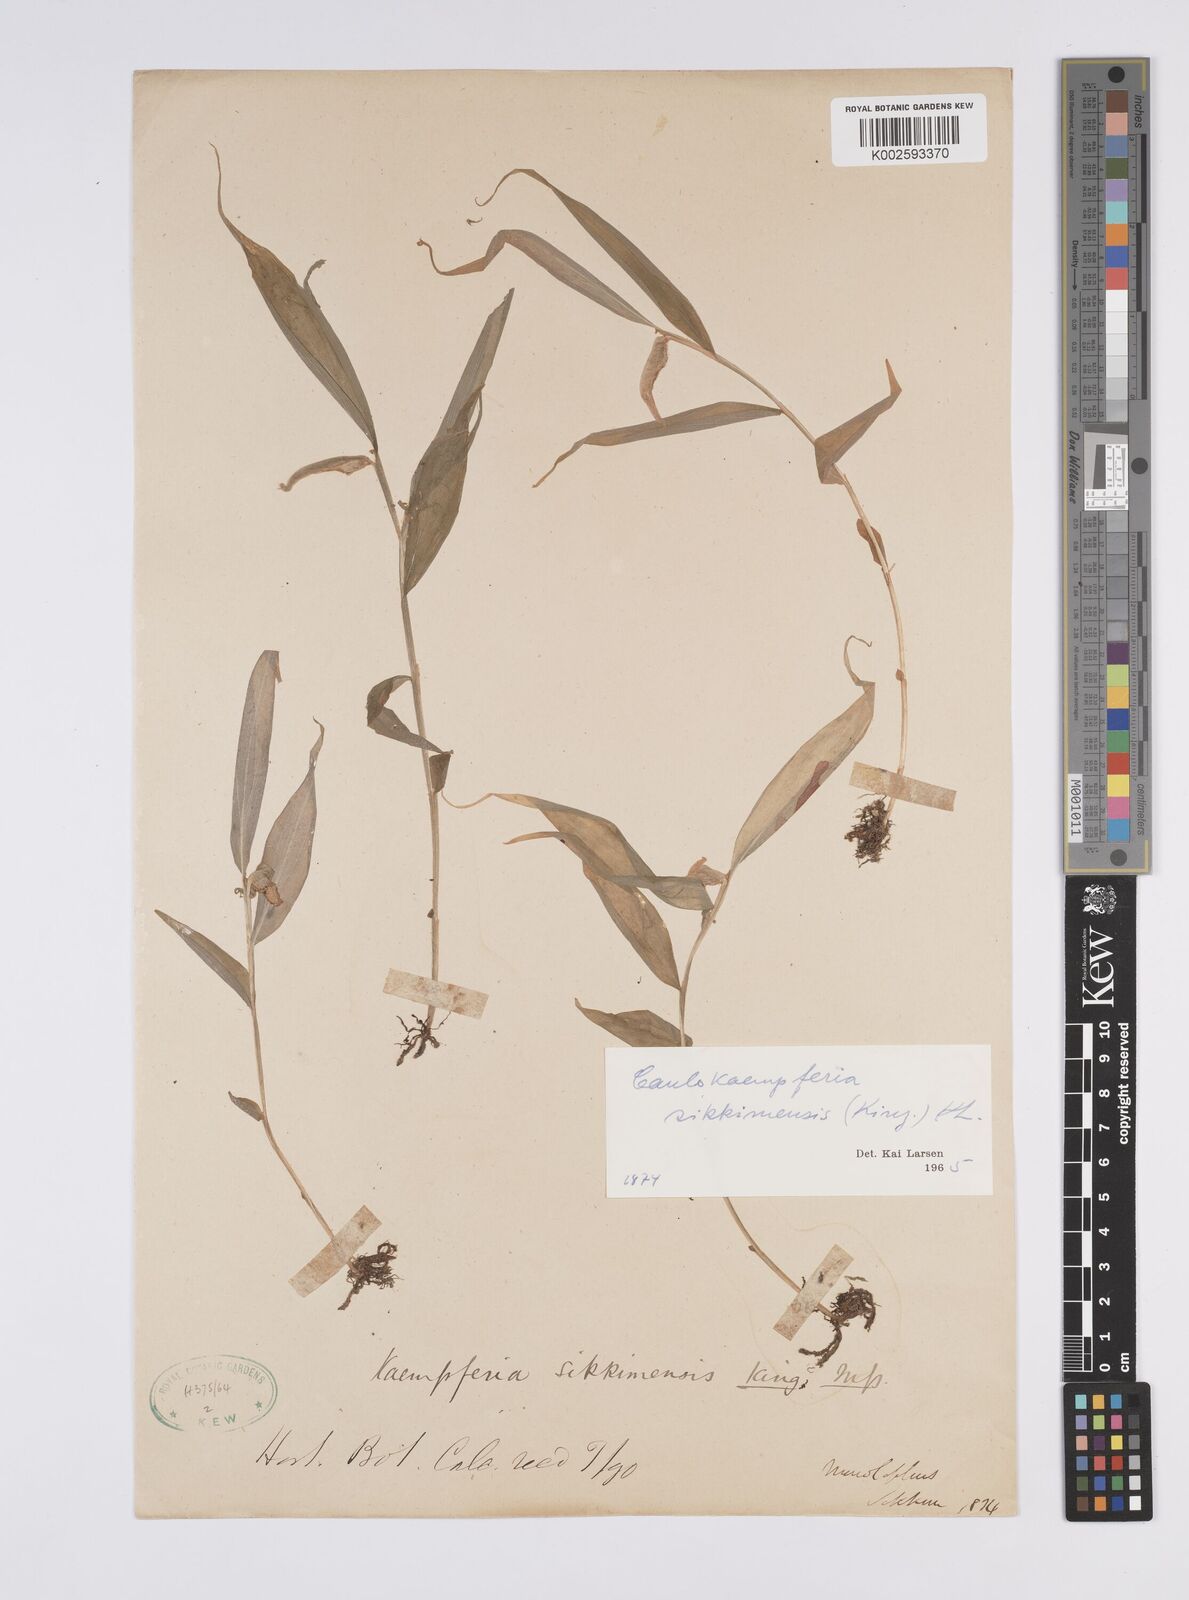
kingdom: Plantae
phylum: Tracheophyta
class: Liliopsida
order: Zingiberales
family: Zingiberaceae
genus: Caulokaempferia
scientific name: Caulokaempferia sikkimensis
